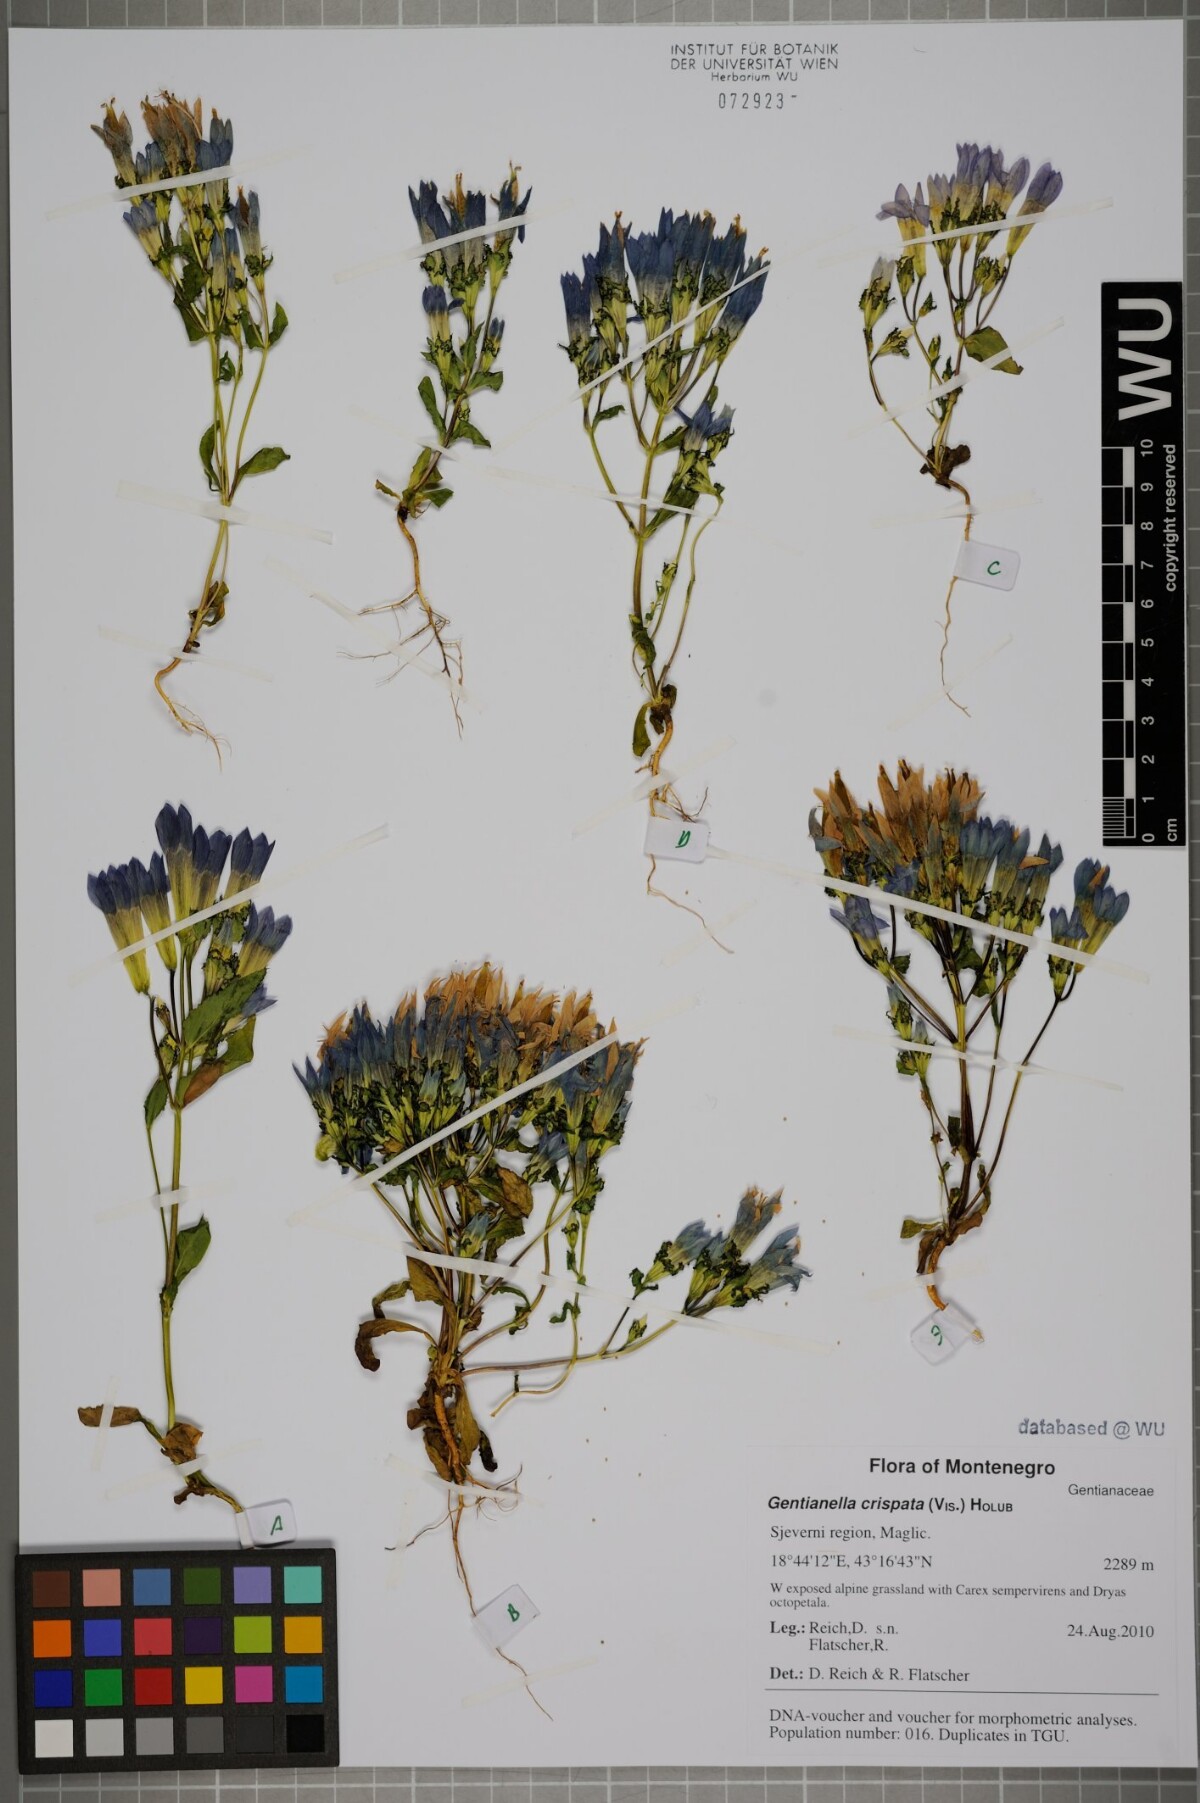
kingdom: Plantae
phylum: Tracheophyta
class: Magnoliopsida
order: Gentianales
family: Gentianaceae
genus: Gentianella
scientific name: Gentianella crispata
